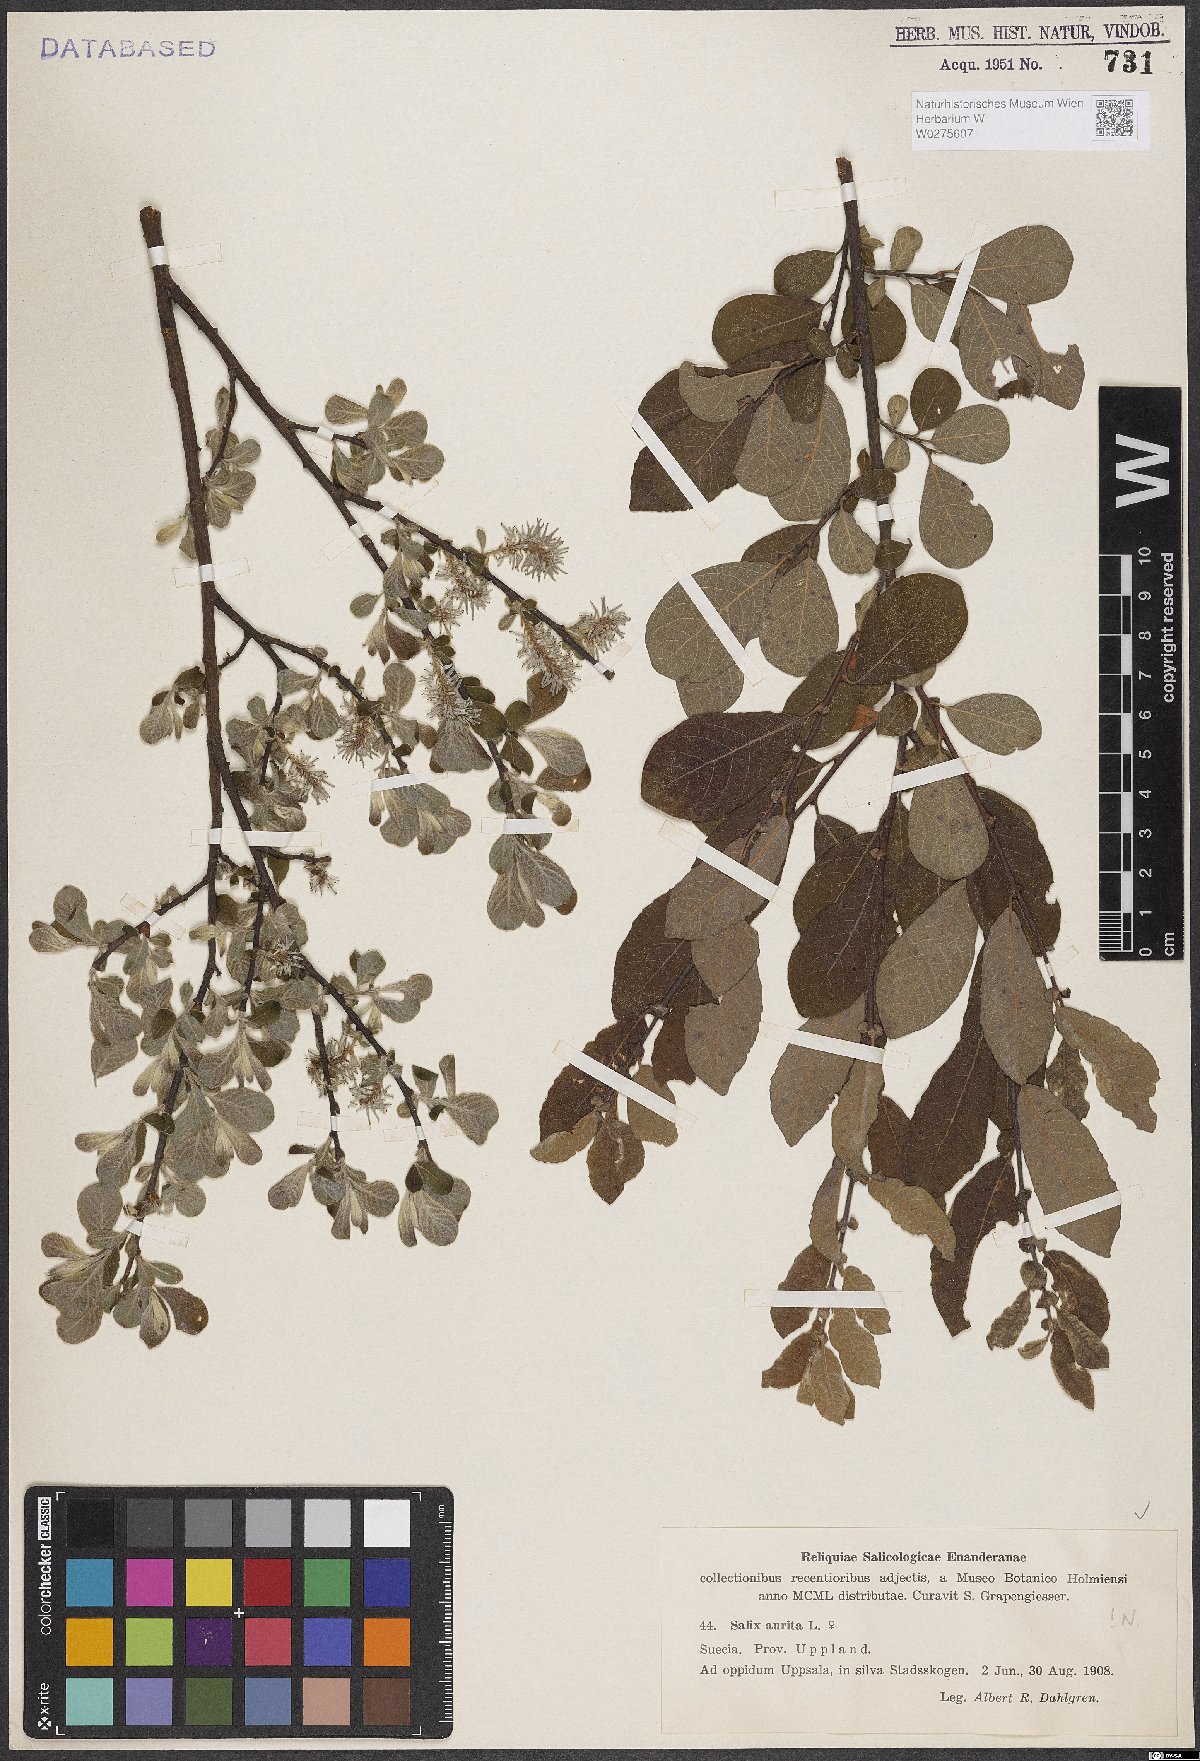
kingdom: Plantae
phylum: Tracheophyta
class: Magnoliopsida
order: Malpighiales
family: Salicaceae
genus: Salix
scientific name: Salix aurita
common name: Eared willow
